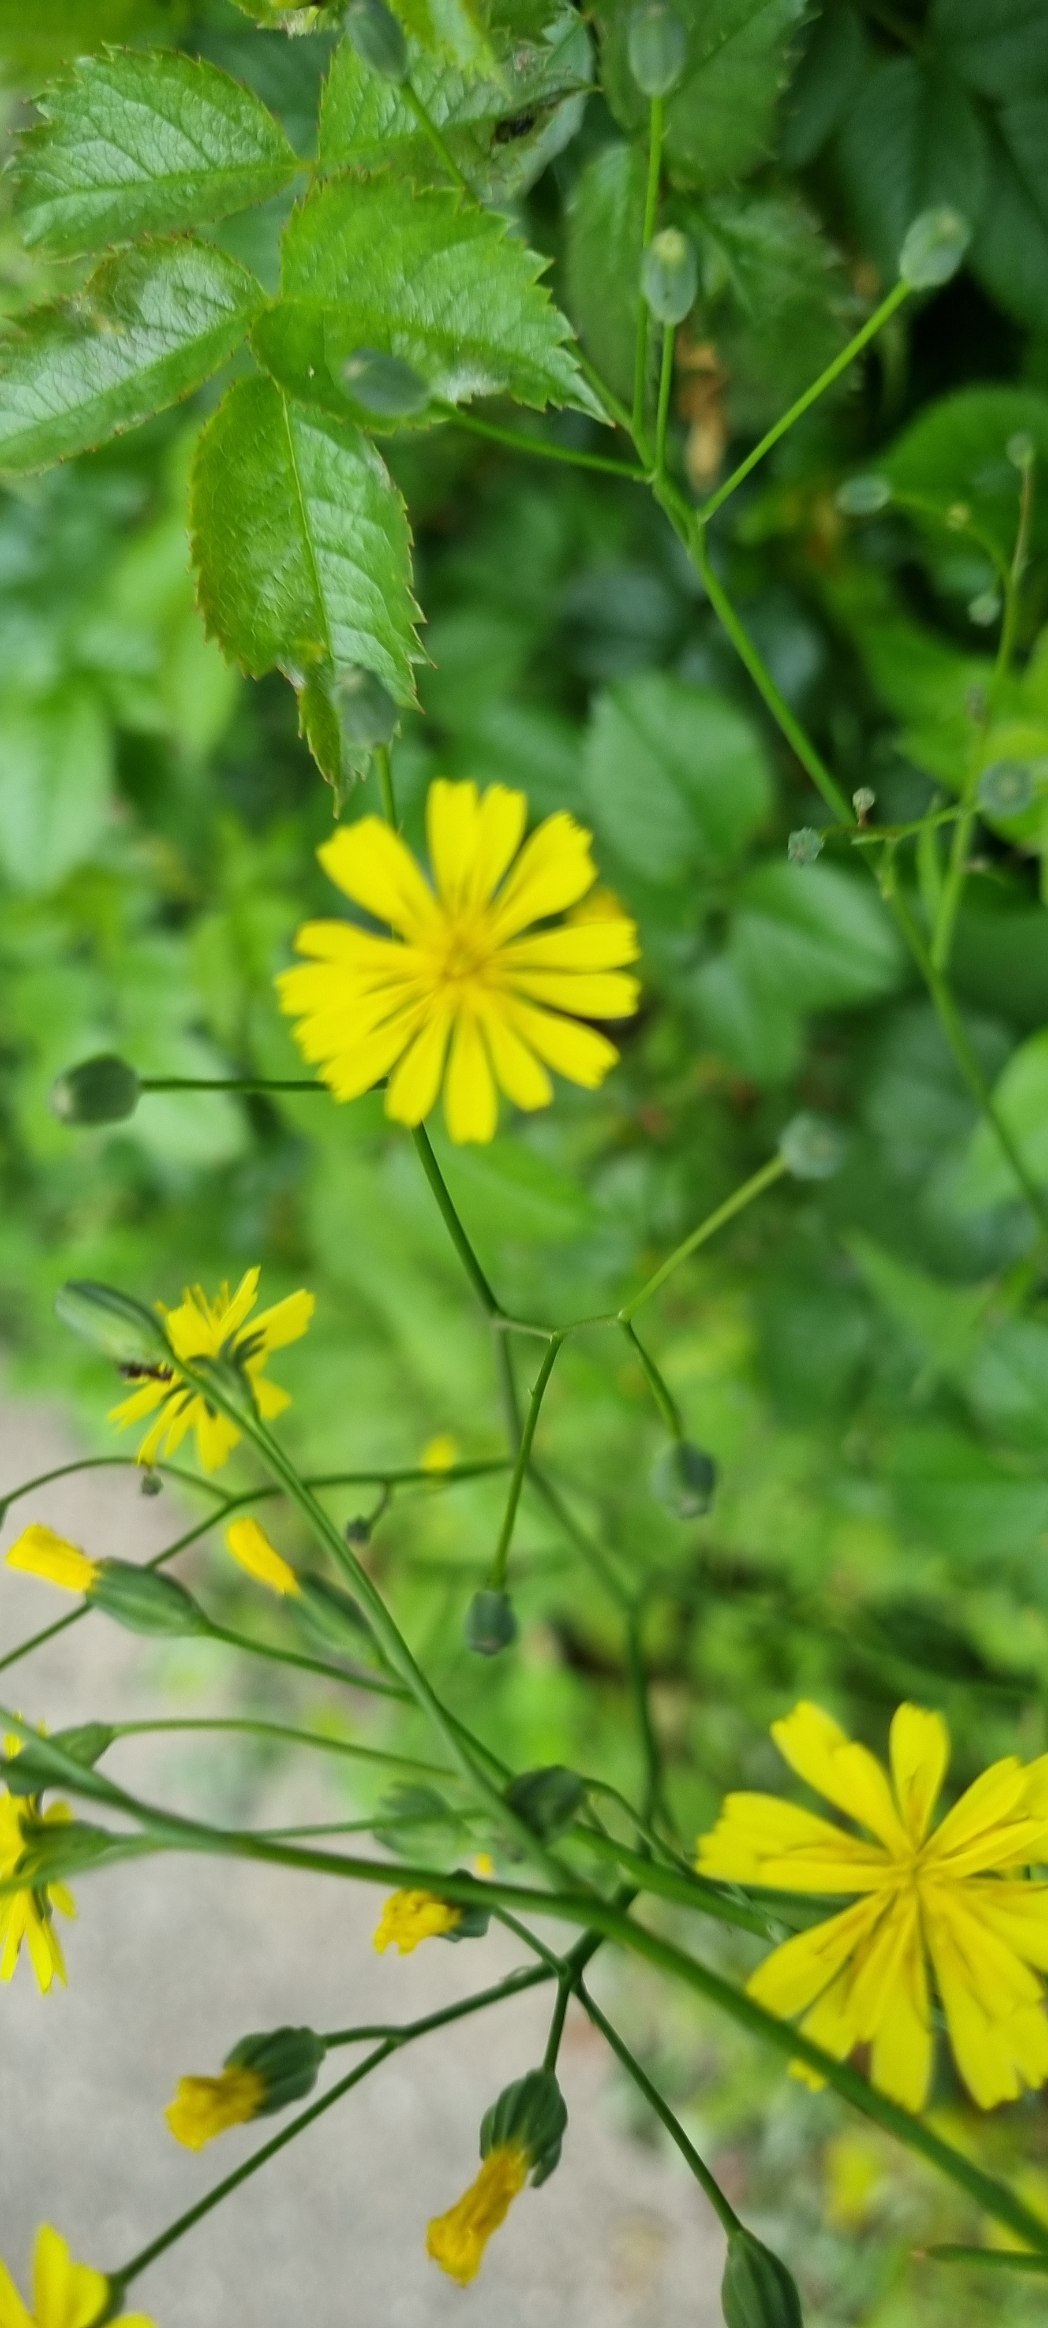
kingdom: Plantae
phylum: Tracheophyta
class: Magnoliopsida
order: Asterales
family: Asteraceae
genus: Lapsana
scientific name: Lapsana communis
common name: Haremad
